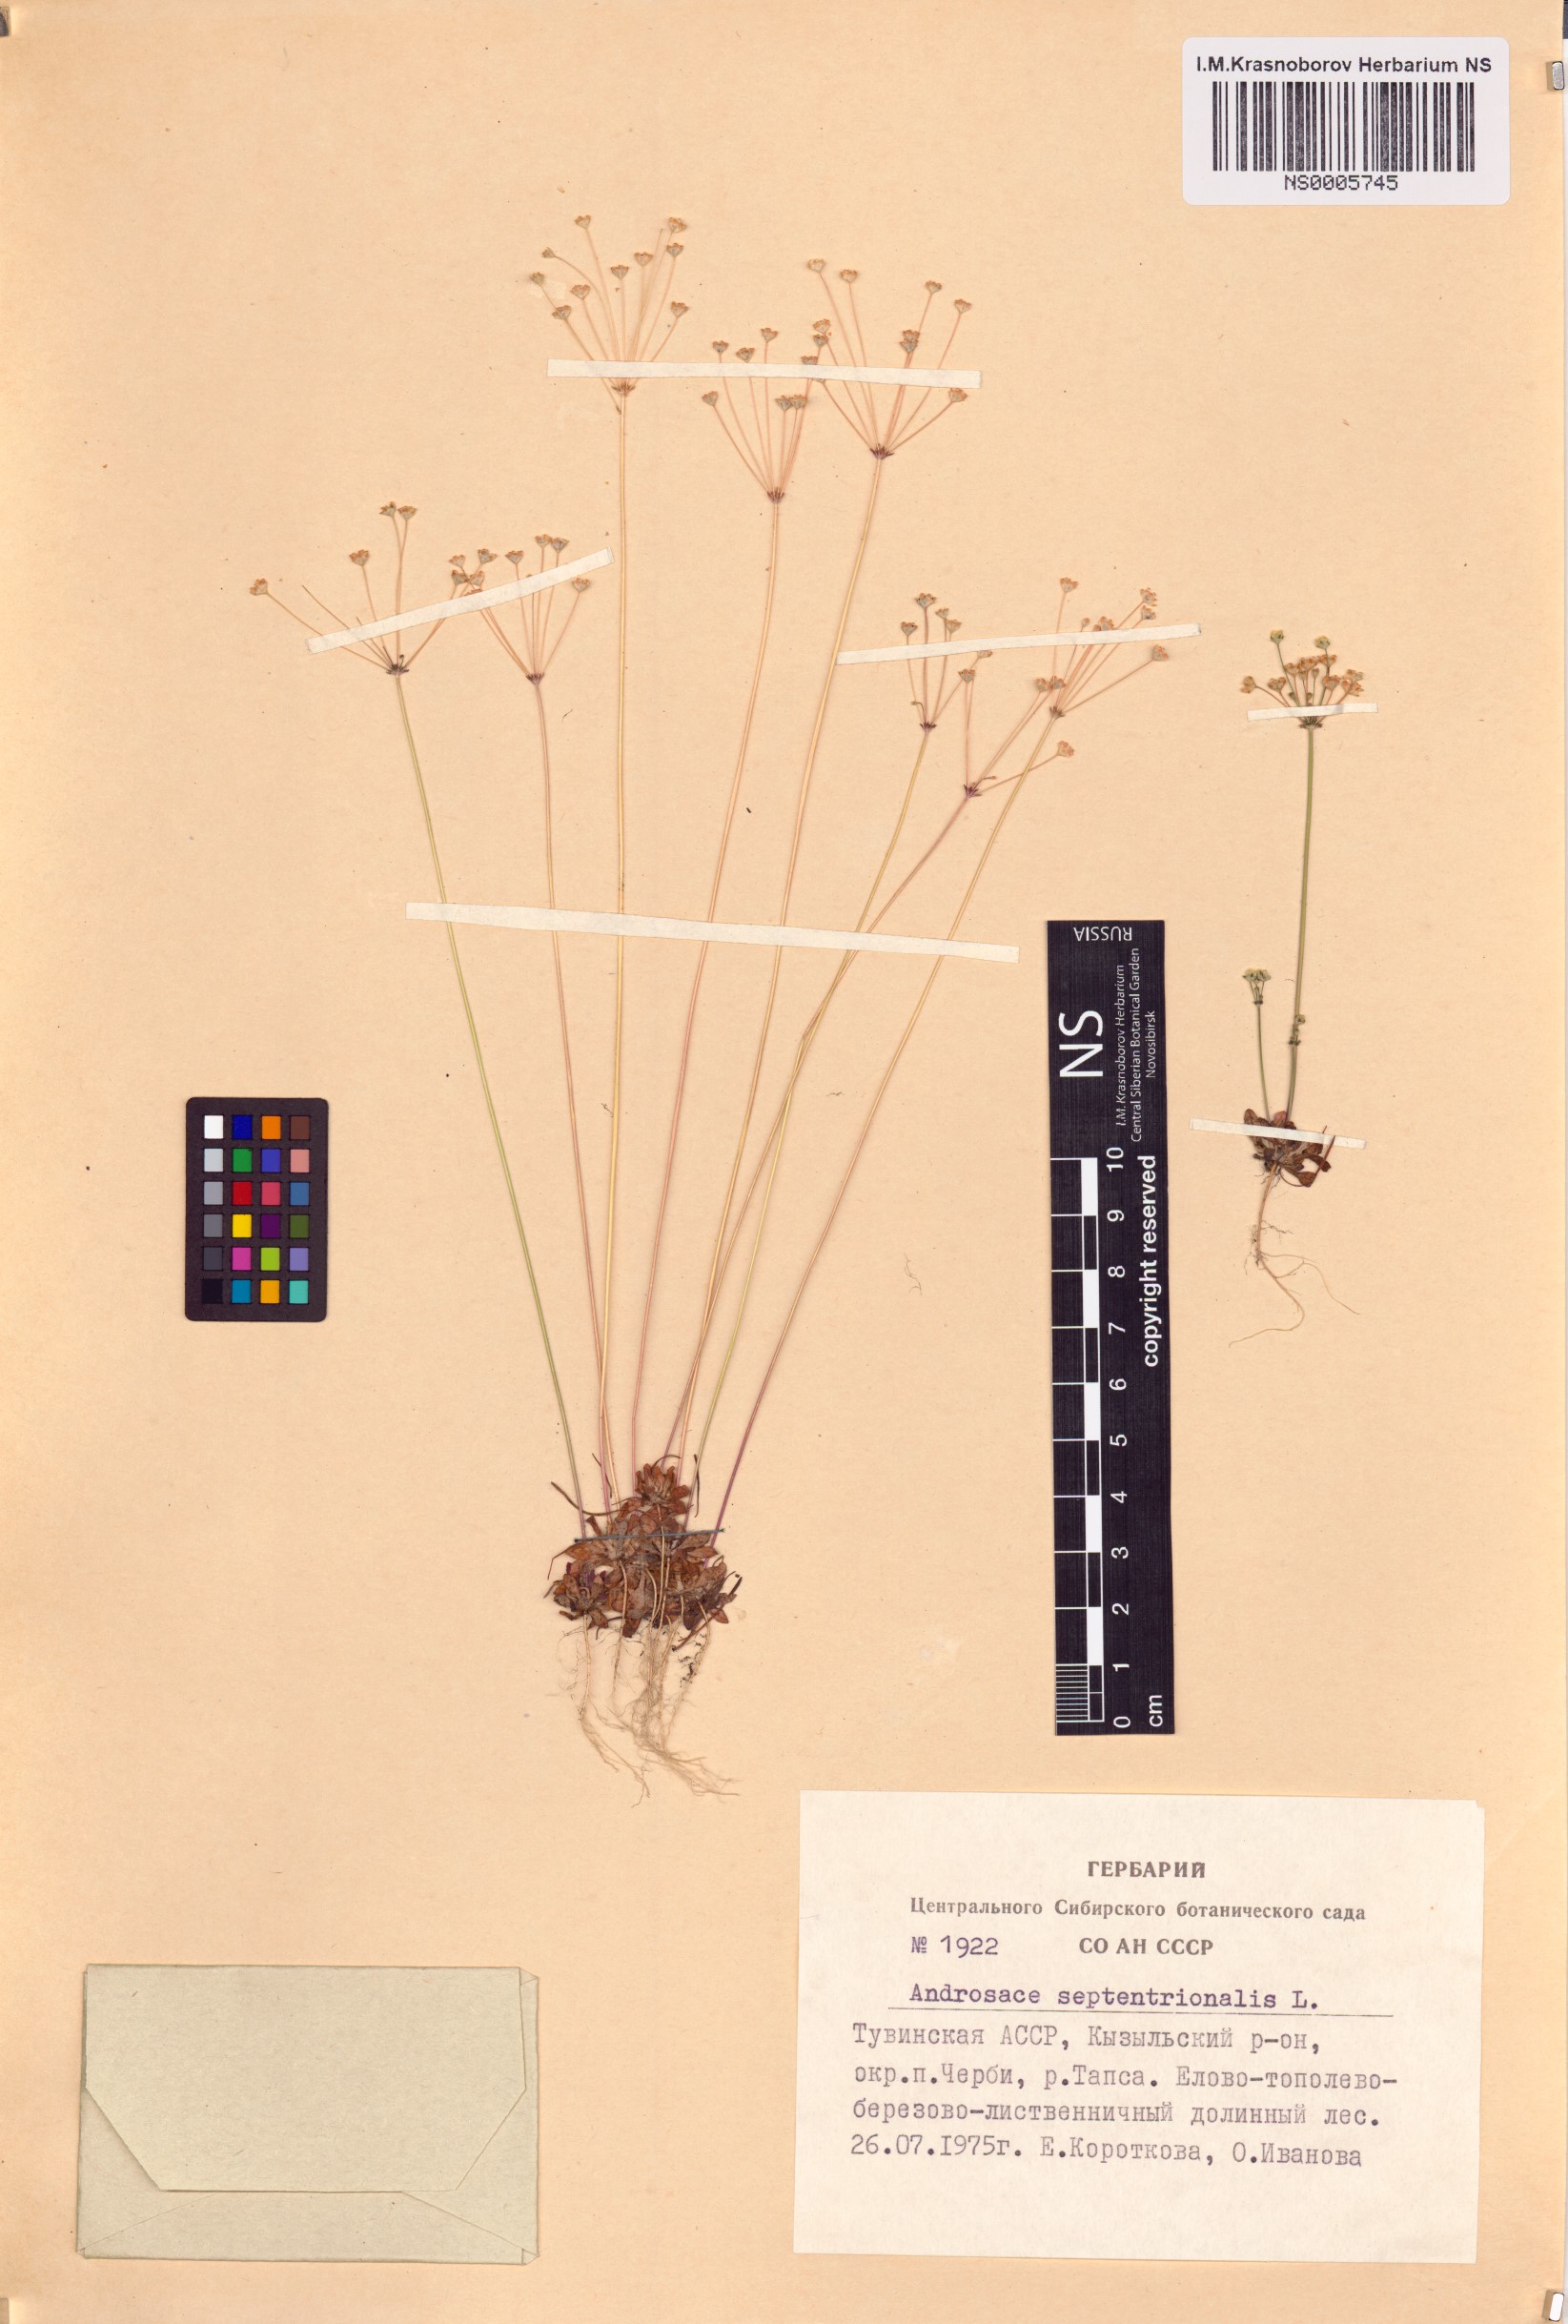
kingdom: Plantae
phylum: Tracheophyta
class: Magnoliopsida
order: Ericales
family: Primulaceae
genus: Androsace
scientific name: Androsace septentrionalis
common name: Hairy northern fairy-candelabra
